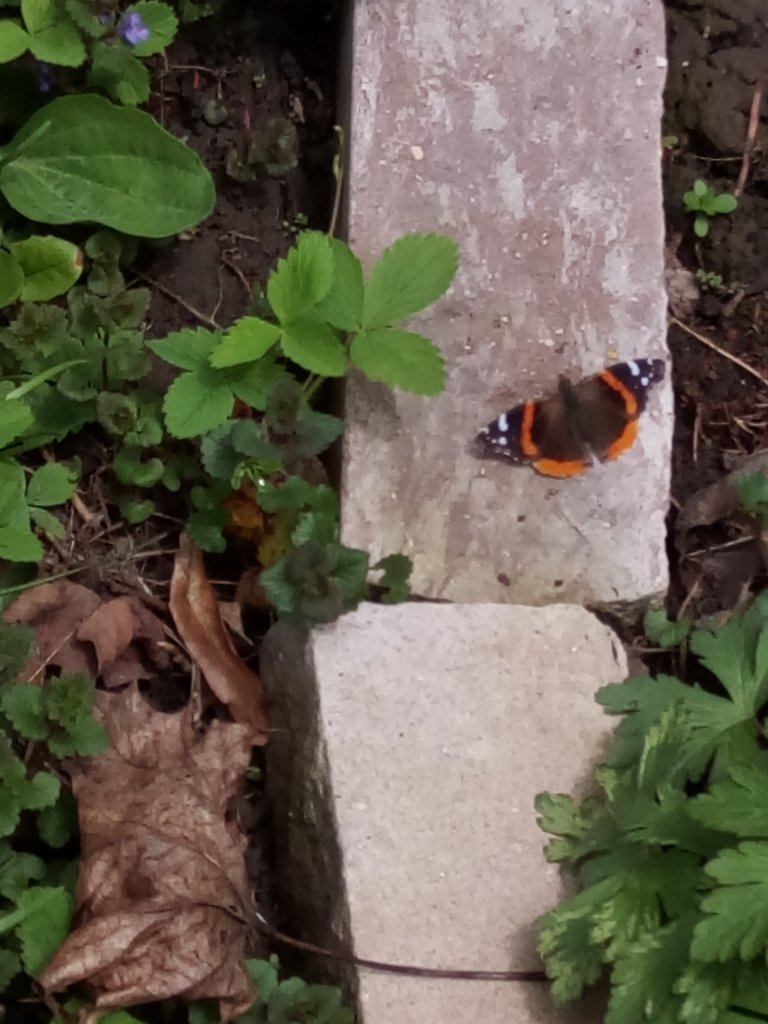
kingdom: Animalia
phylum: Arthropoda
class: Insecta
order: Lepidoptera
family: Nymphalidae
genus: Vanessa
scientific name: Vanessa atalanta
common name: Red Admiral
